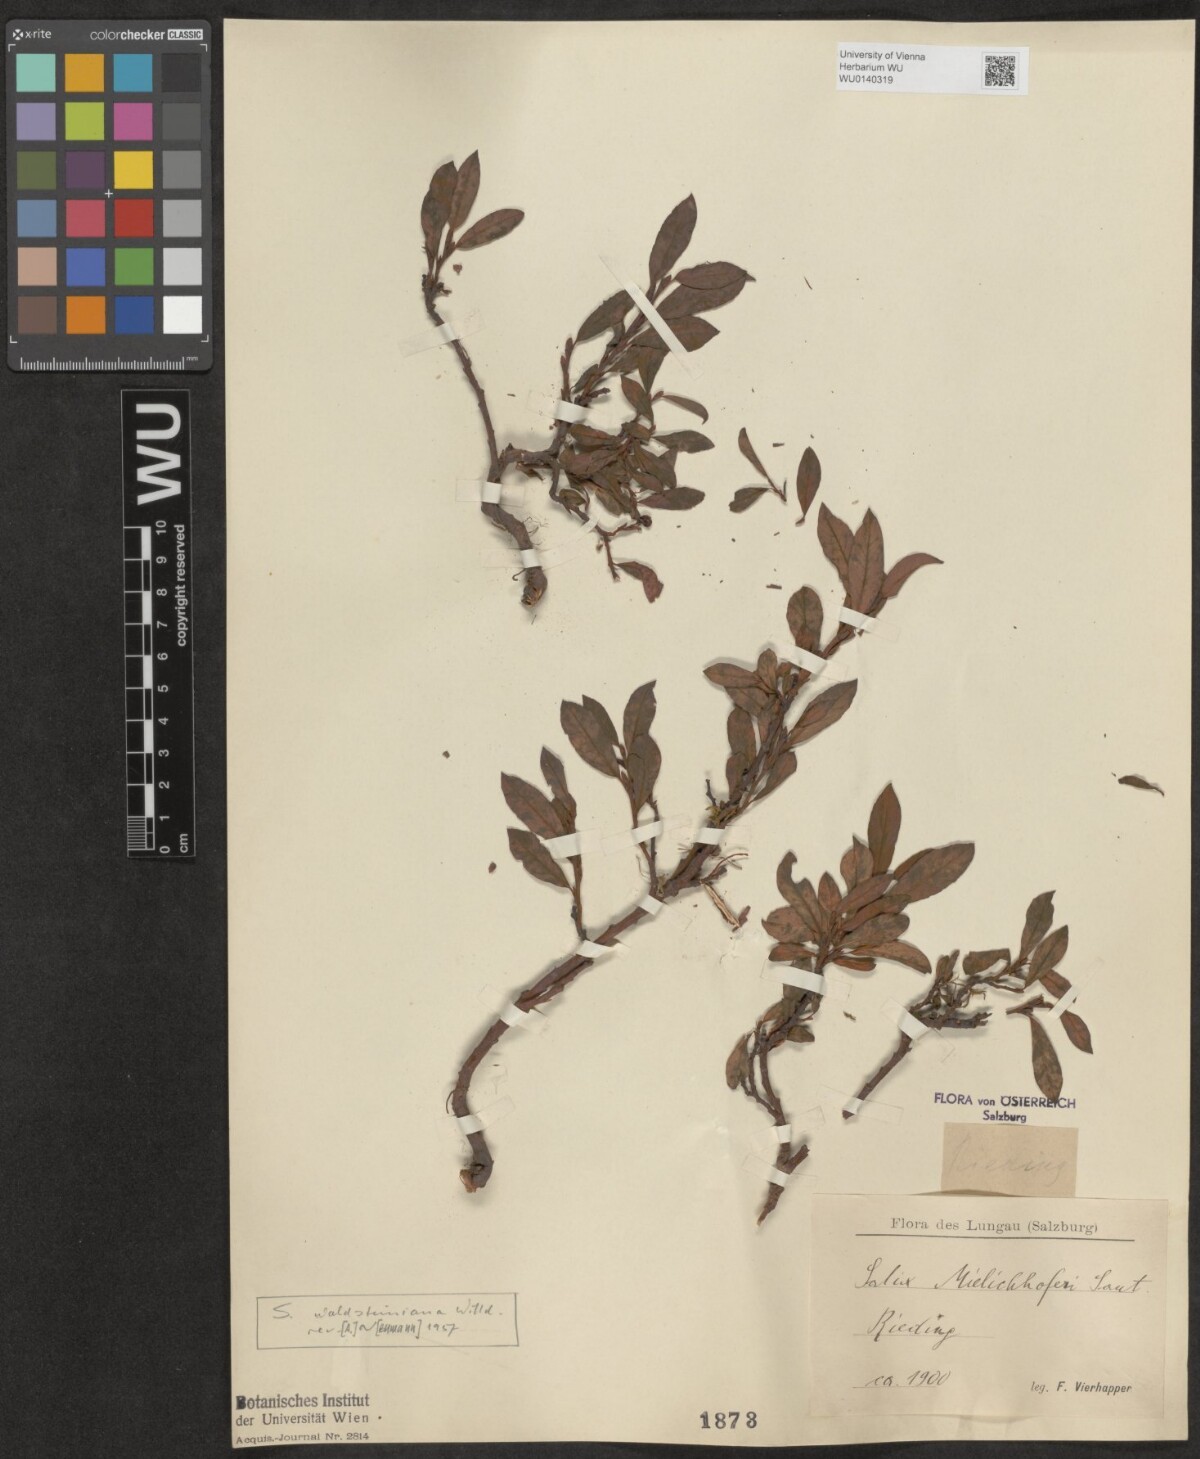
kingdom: Plantae
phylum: Tracheophyta
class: Magnoliopsida
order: Malpighiales
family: Salicaceae
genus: Salix
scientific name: Salix waldsteiniana
